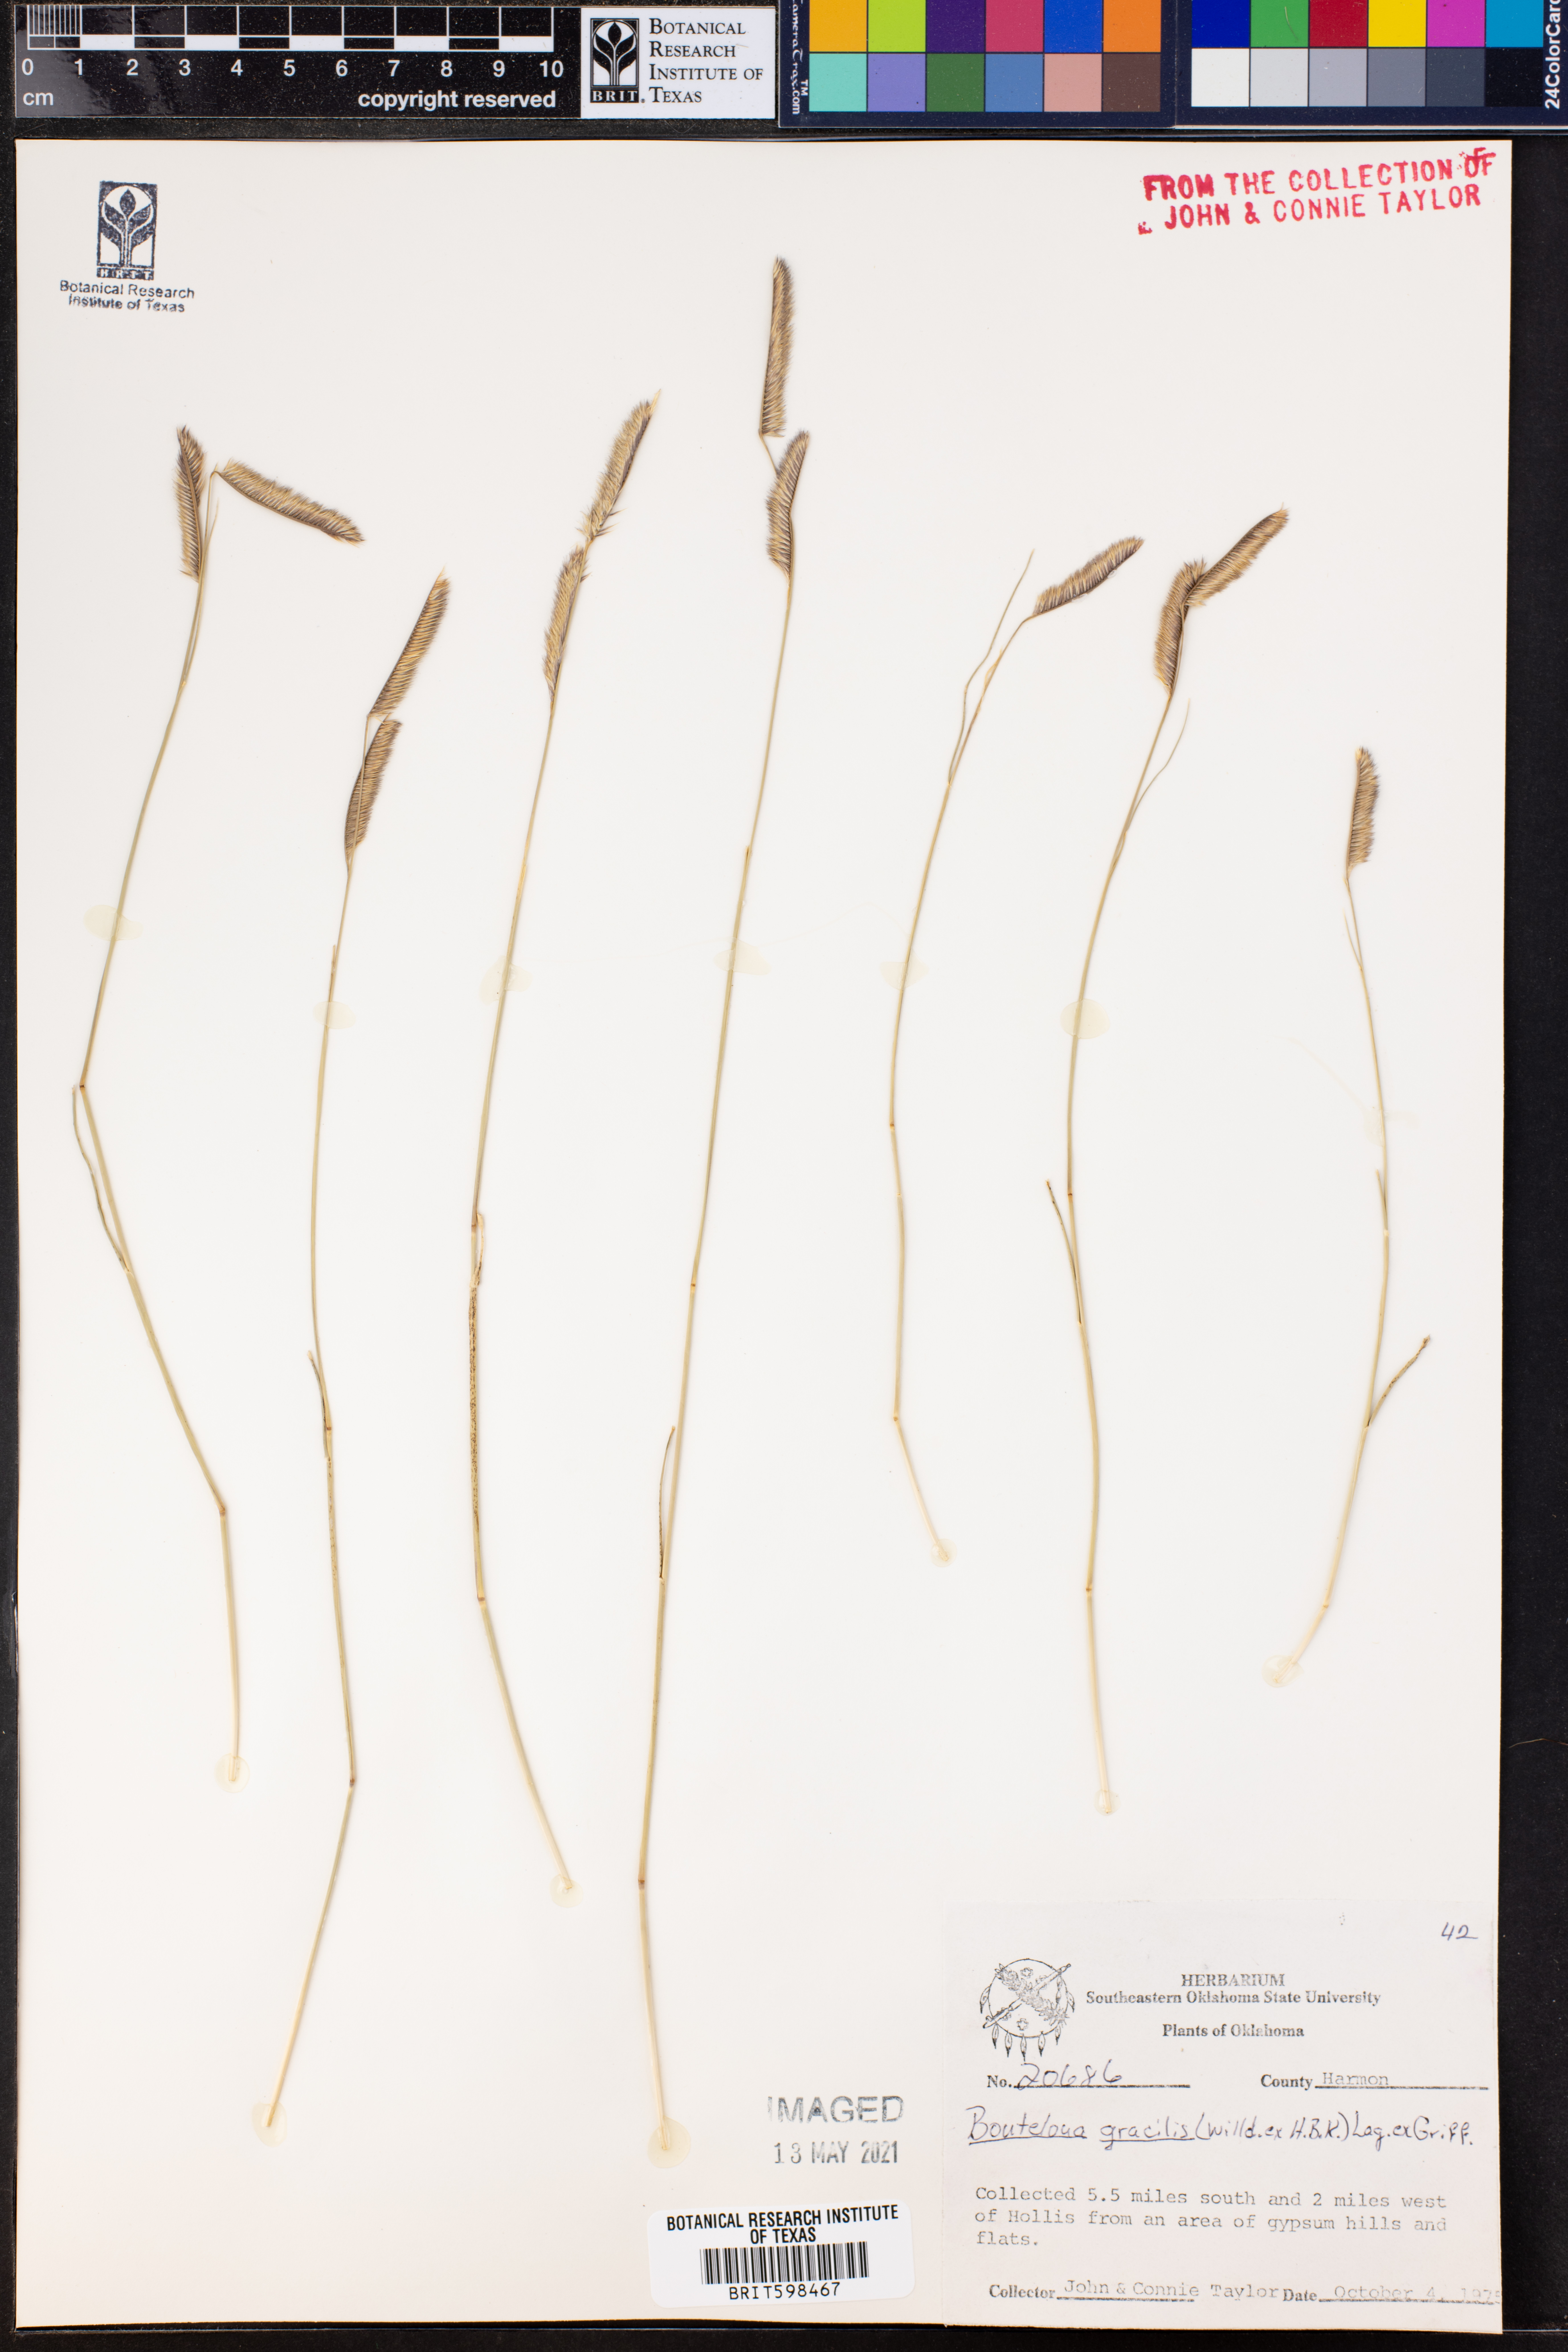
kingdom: Plantae
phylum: Tracheophyta
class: Liliopsida
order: Poales
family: Poaceae
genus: Bouteloua
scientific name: Bouteloua gracilis
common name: Blue grama
